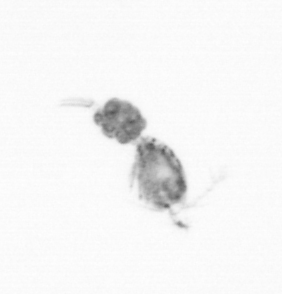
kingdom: Animalia
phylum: Arthropoda
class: Copepoda
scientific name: Copepoda
